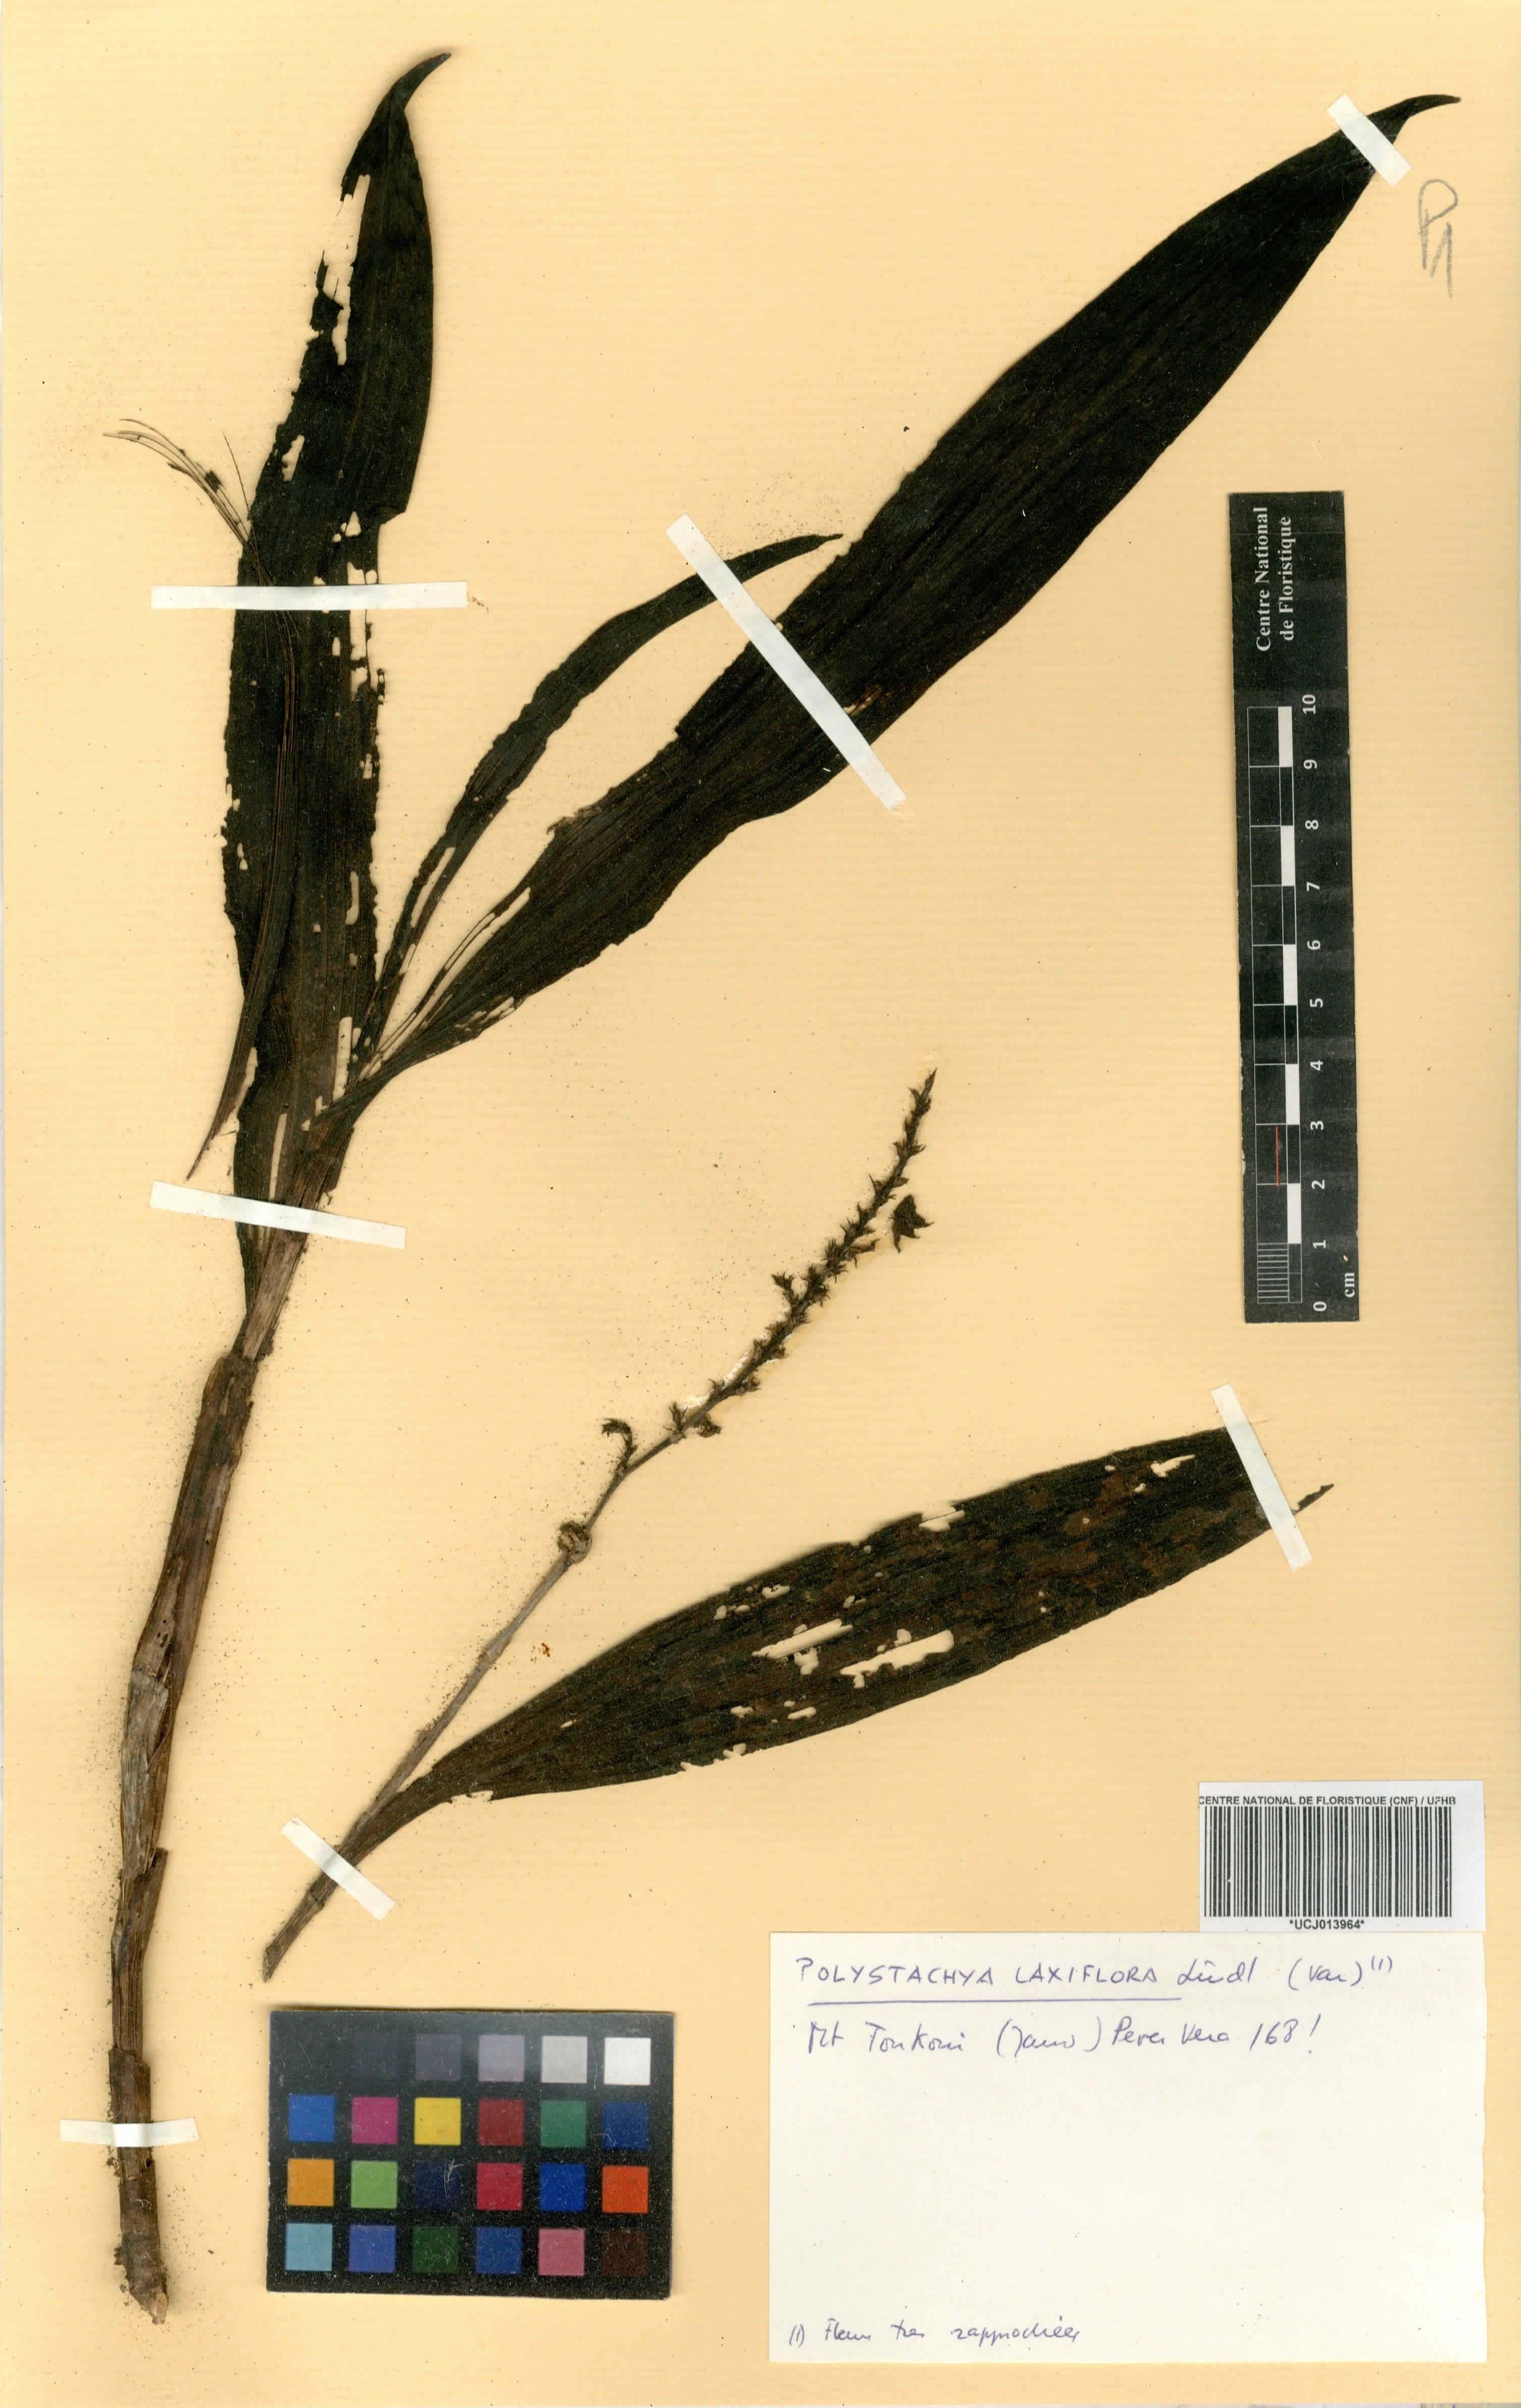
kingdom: Plantae
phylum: Tracheophyta
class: Liliopsida
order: Asparagales
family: Orchidaceae
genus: Polystachya
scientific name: Polystachya laxiflora
